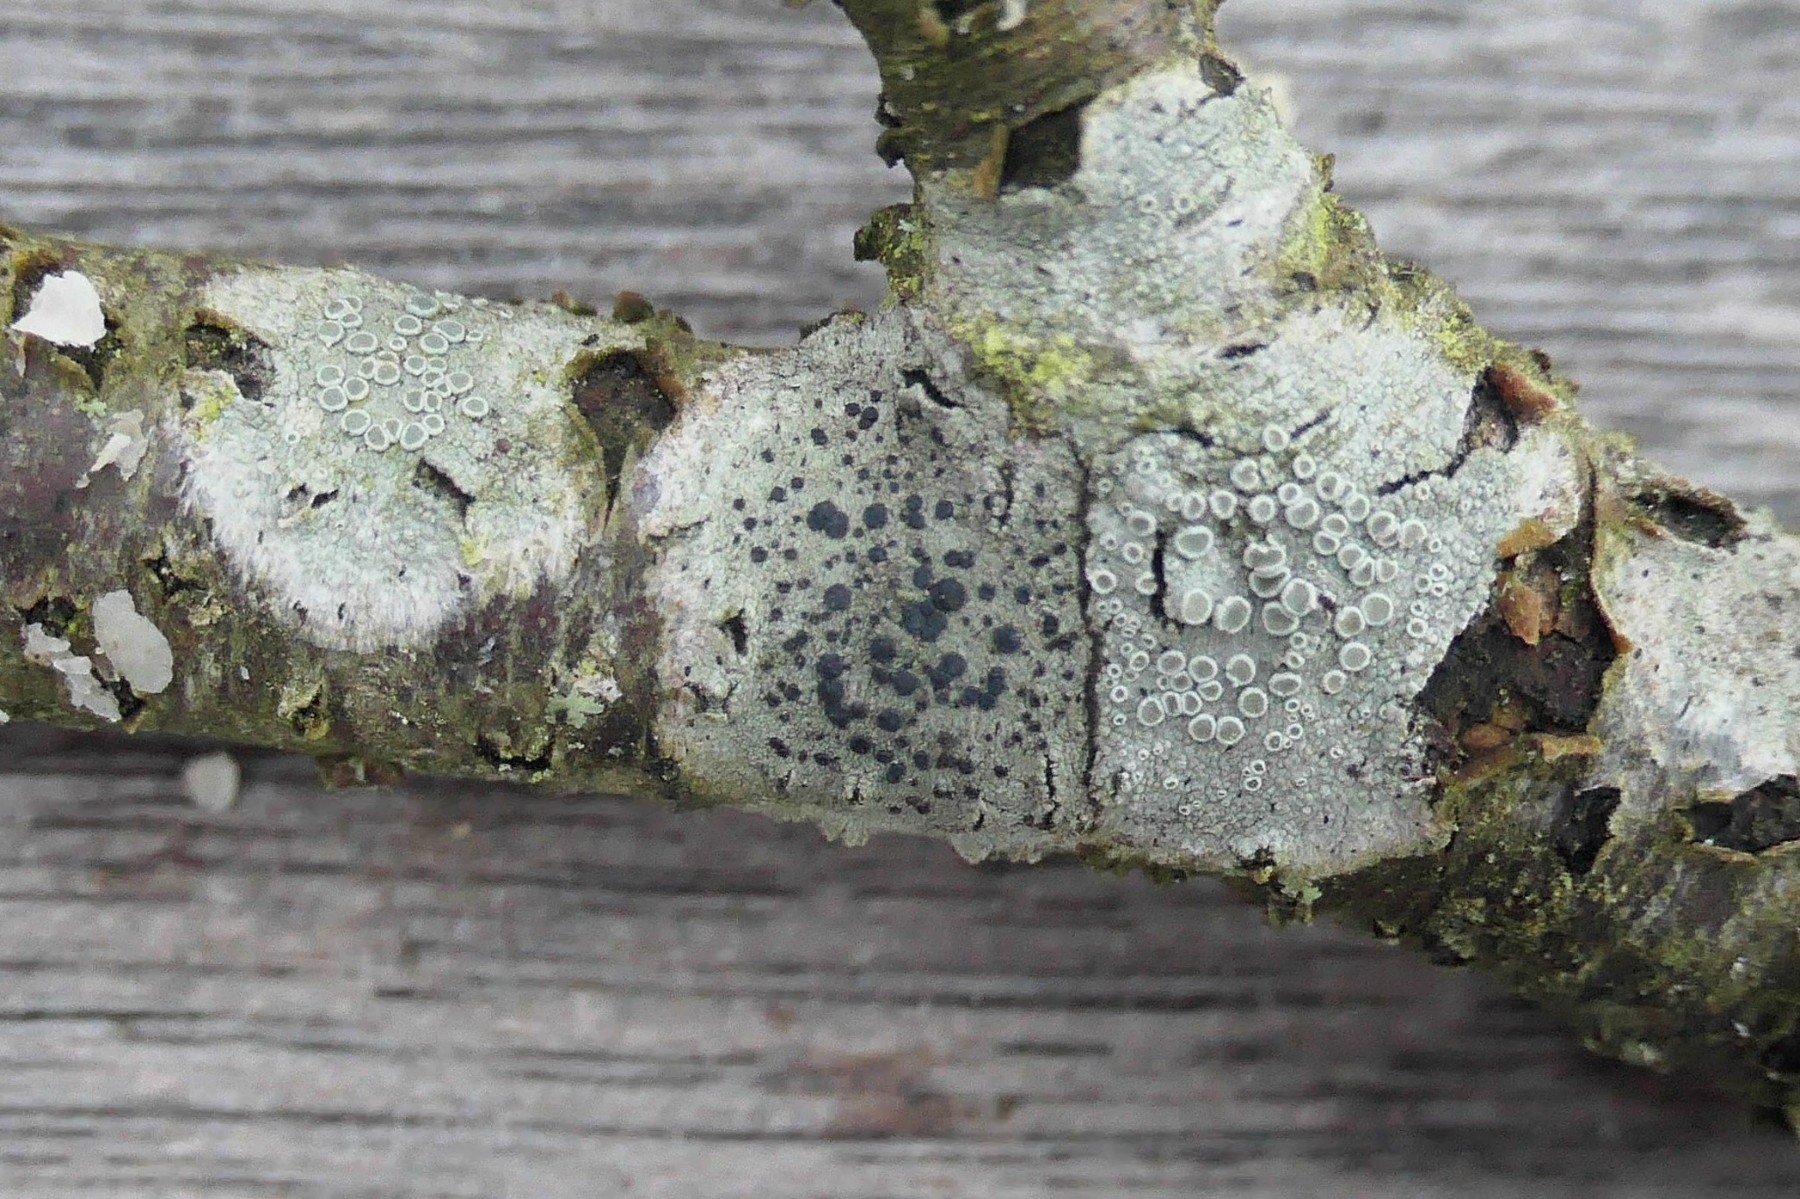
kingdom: Fungi
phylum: Ascomycota
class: Lecanoromycetes
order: Lecanorales
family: Lecanoraceae
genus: Lecidella
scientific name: Lecidella elaeochroma
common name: grågrøn skivelav
